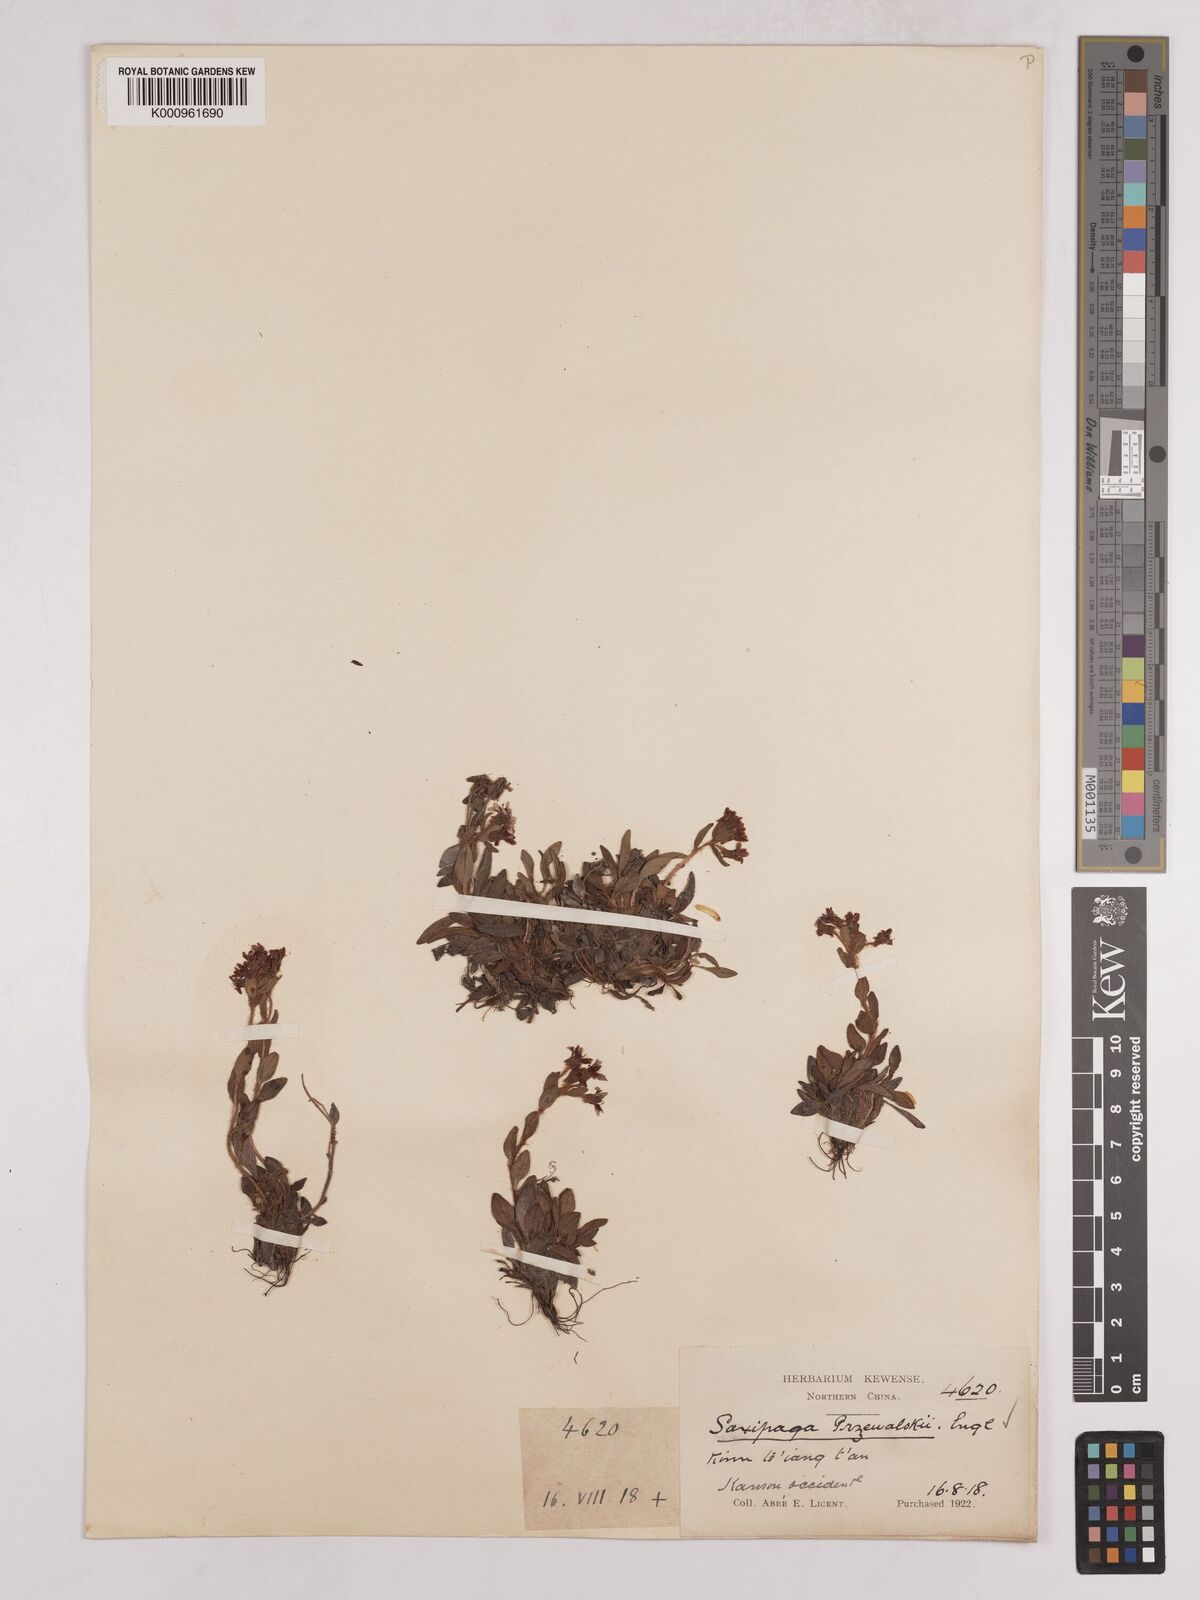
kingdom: Plantae
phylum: Tracheophyta
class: Magnoliopsida
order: Saxifragales
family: Saxifragaceae
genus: Saxifraga
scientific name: Saxifraga
